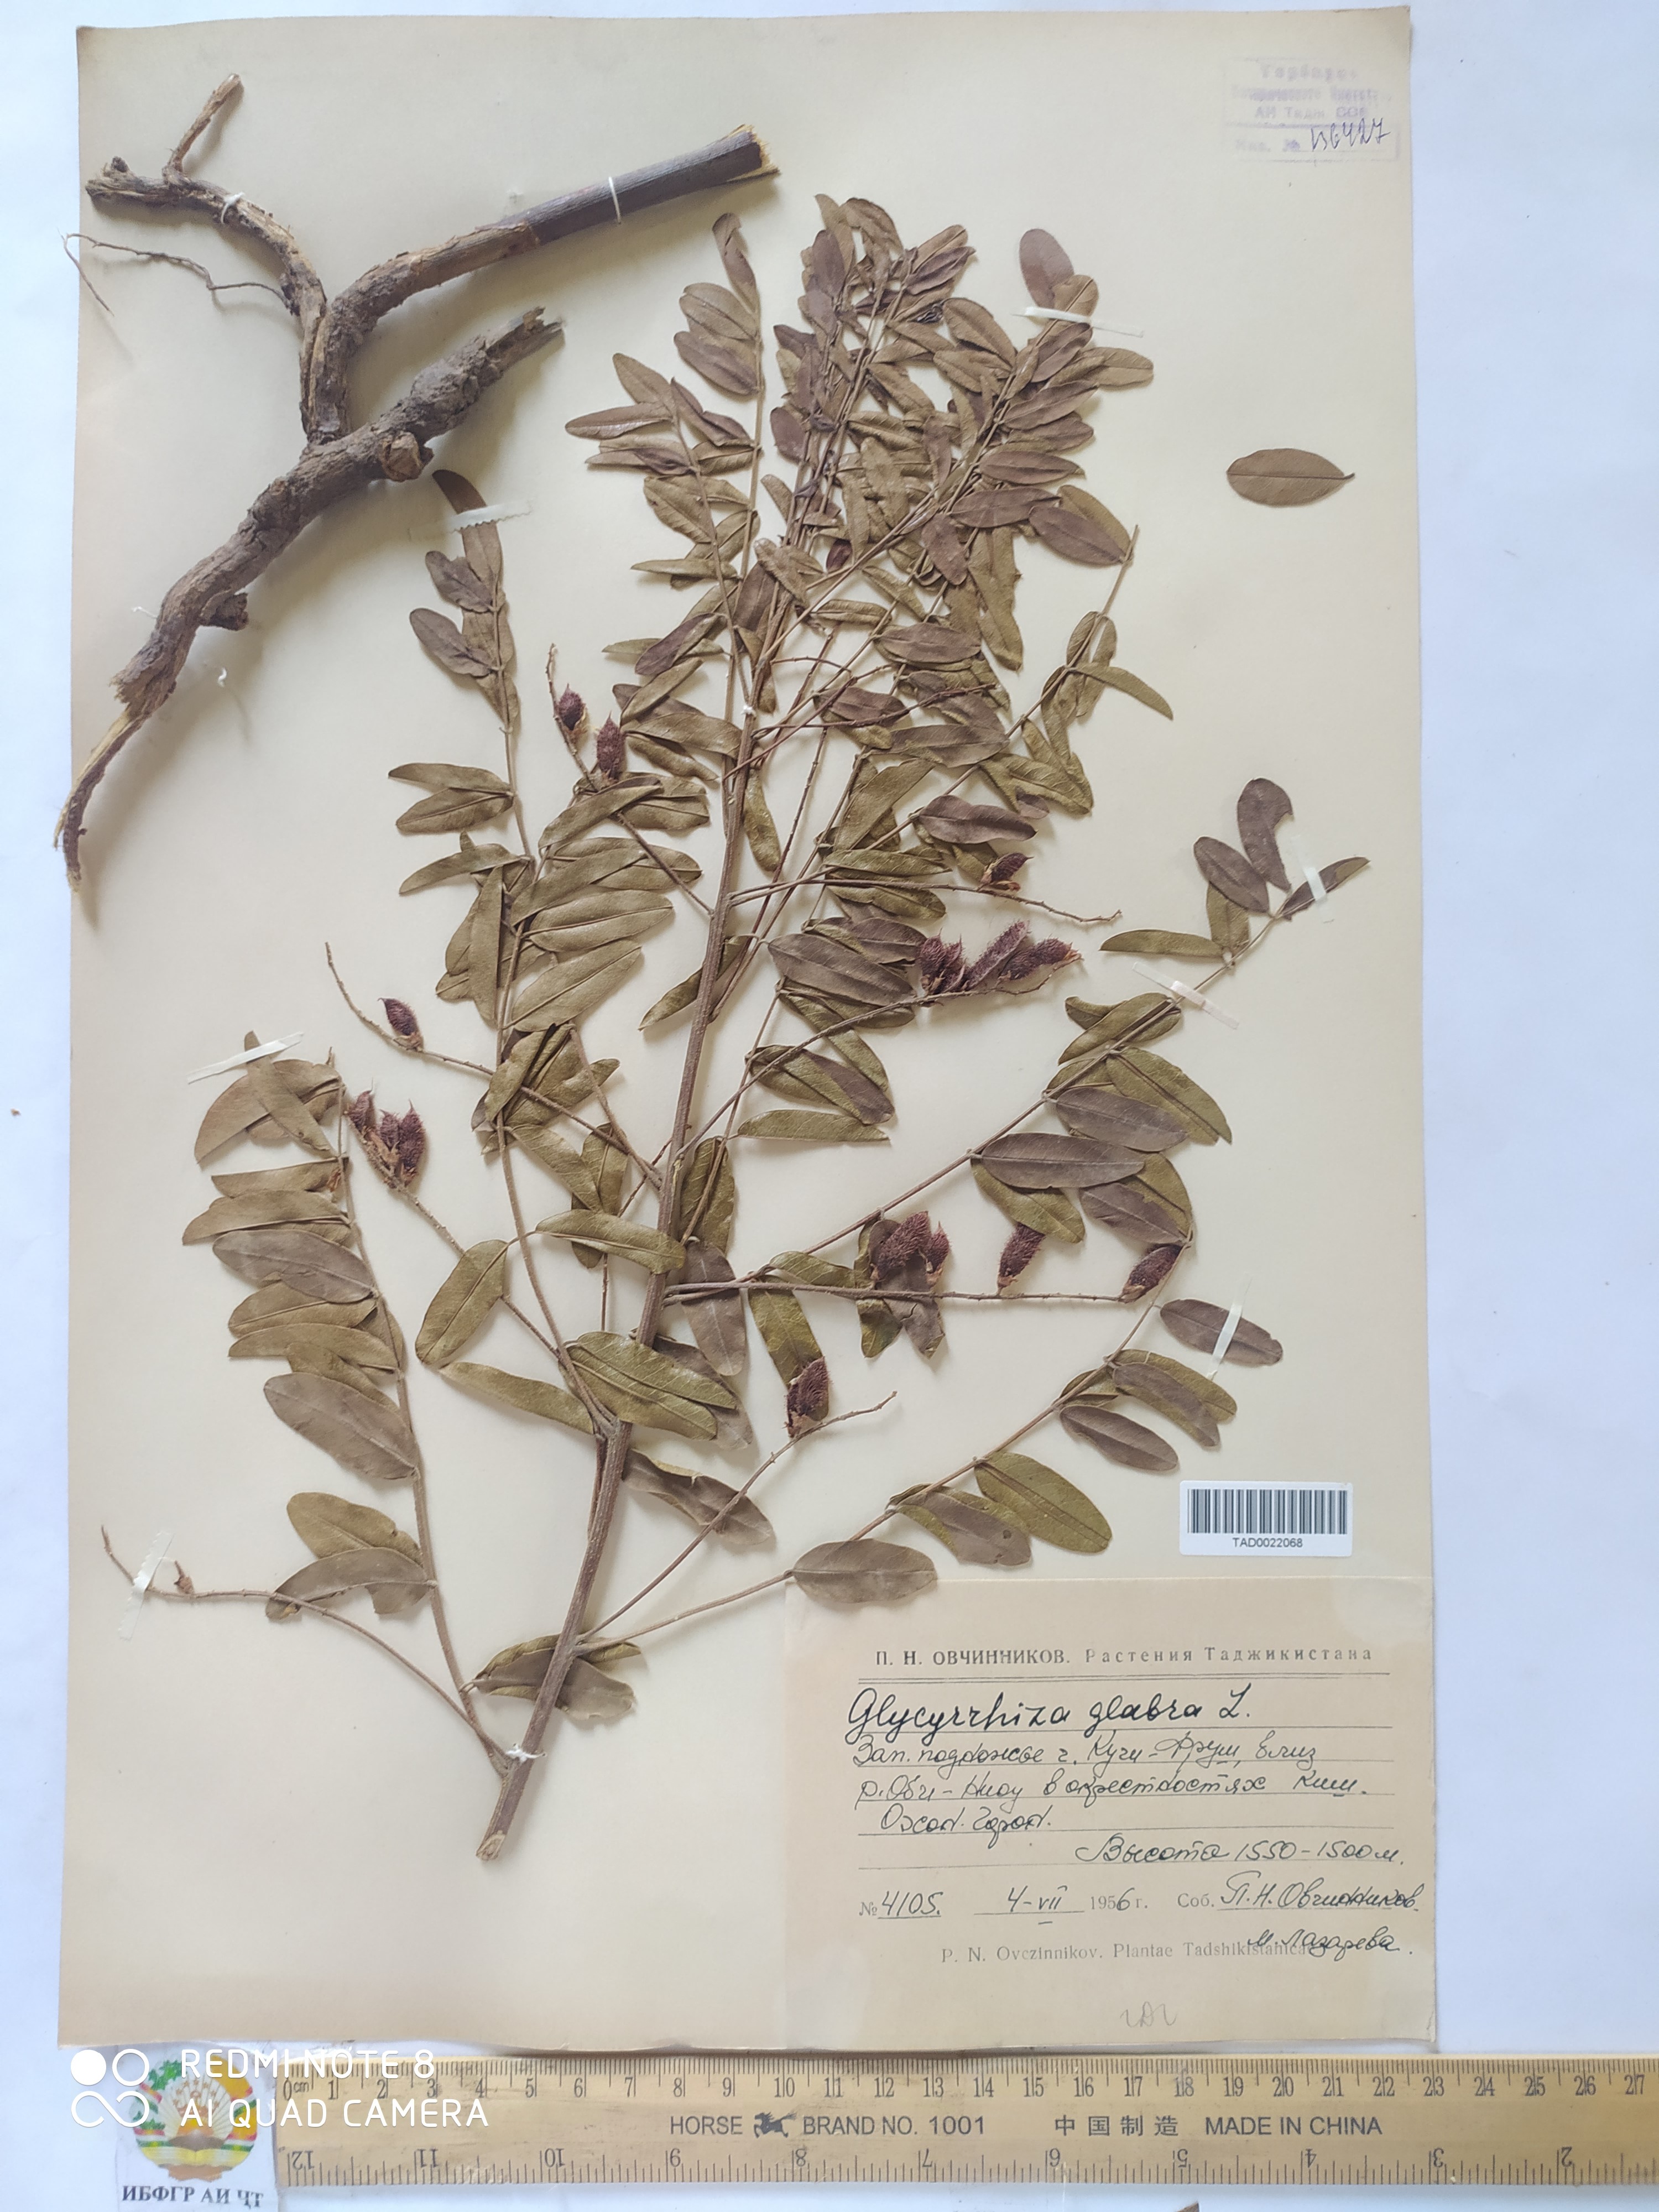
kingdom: Plantae
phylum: Tracheophyta
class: Magnoliopsida
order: Fabales
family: Fabaceae
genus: Glycyrrhiza
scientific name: Glycyrrhiza glabra
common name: Liquorice
